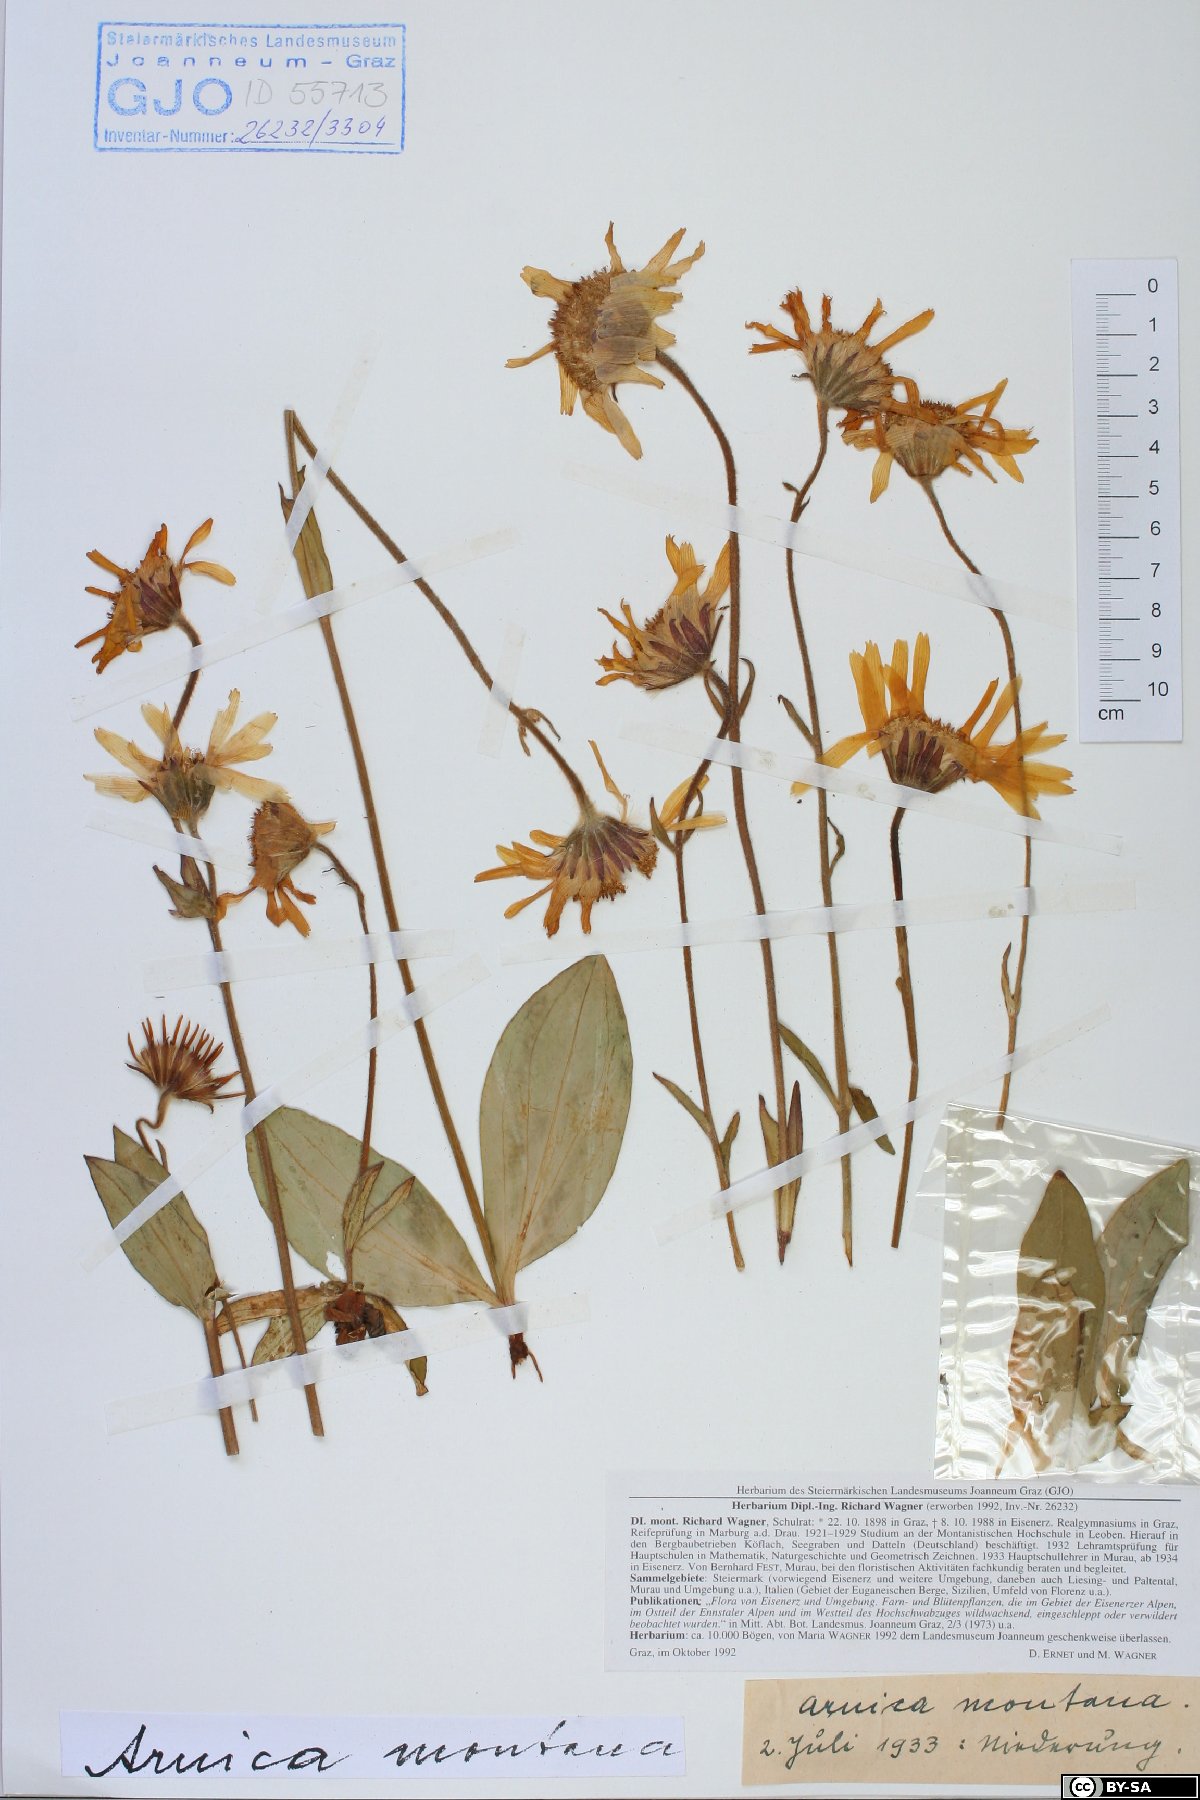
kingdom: Plantae
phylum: Tracheophyta
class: Magnoliopsida
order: Asterales
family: Asteraceae
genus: Arnica
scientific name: Arnica montana
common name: Leopard's bane
